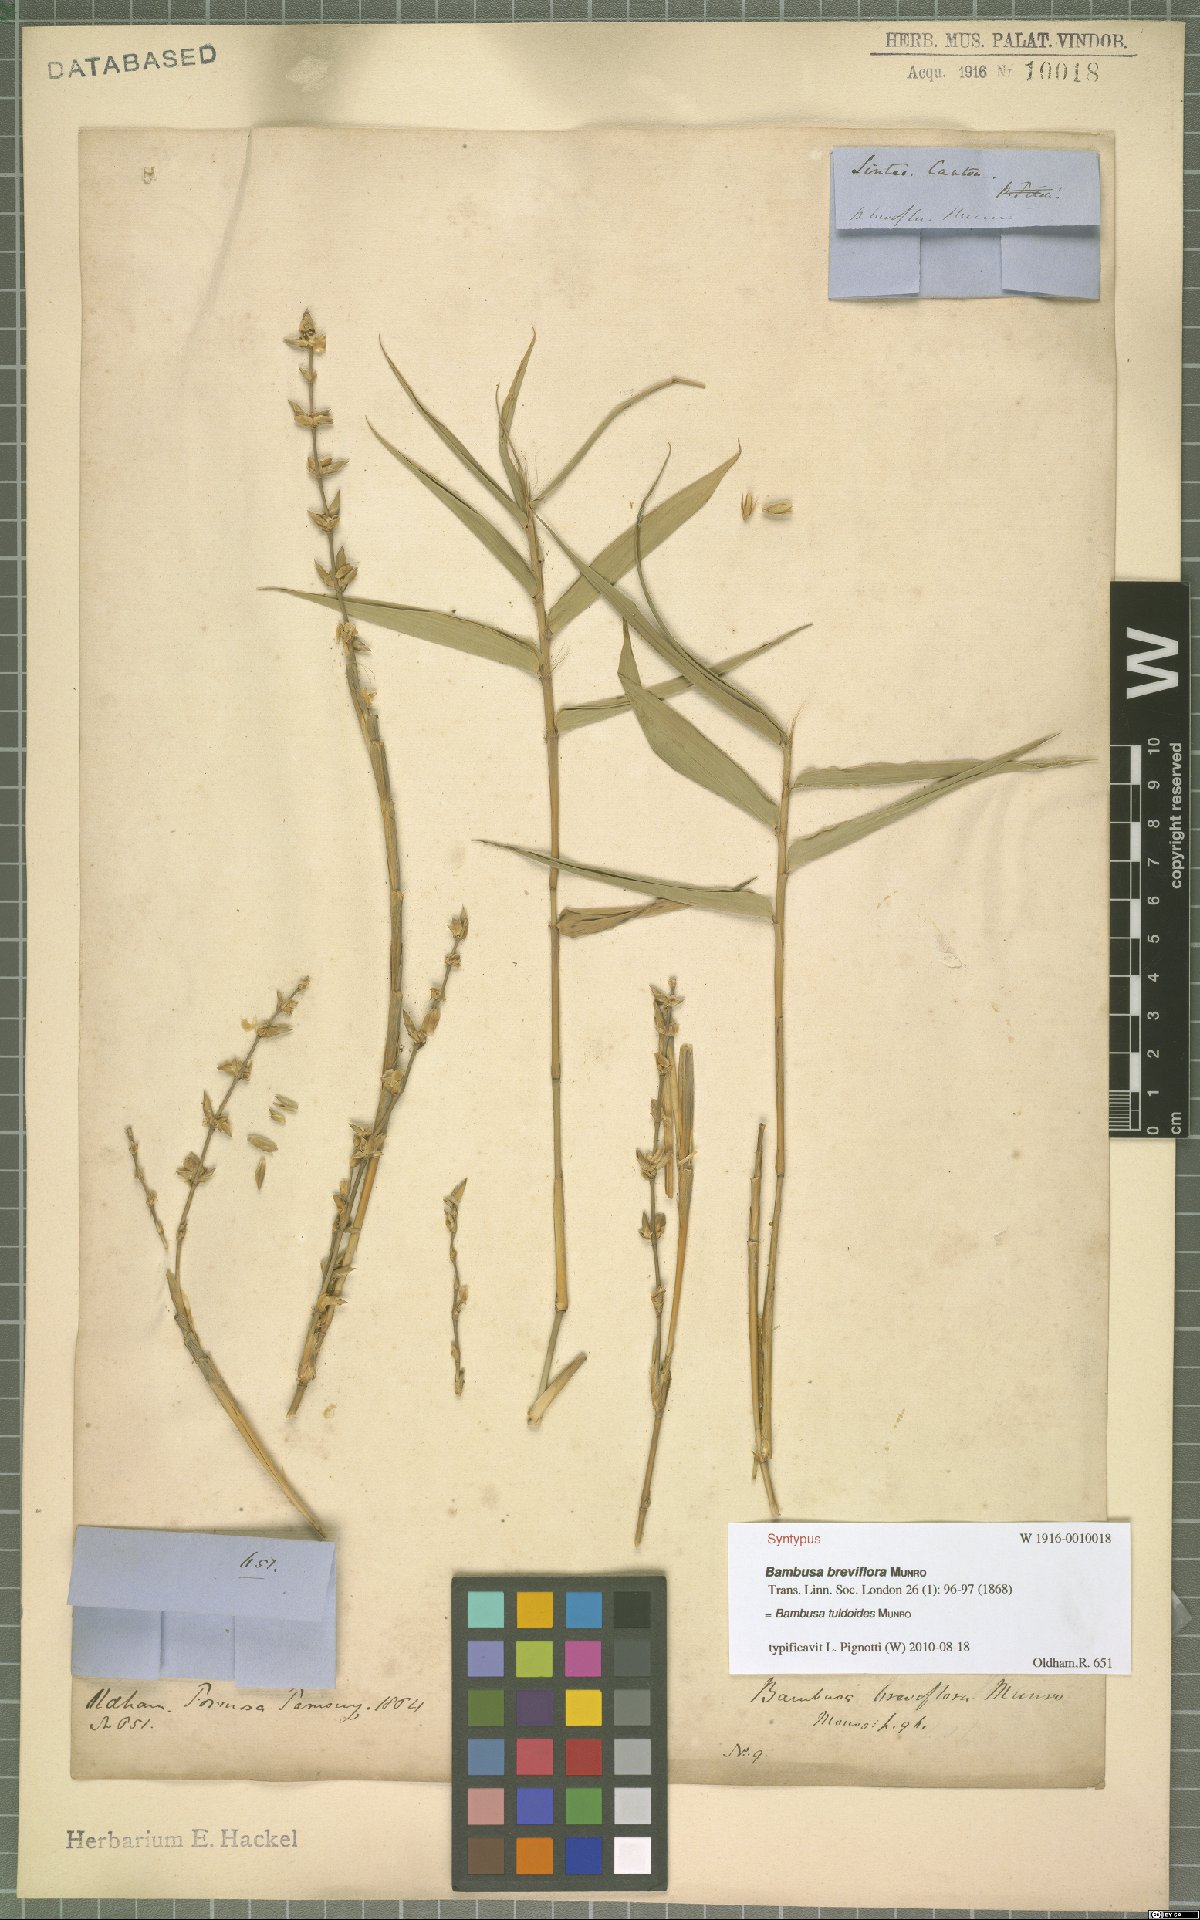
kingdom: Plantae
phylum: Tracheophyta
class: Liliopsida
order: Poales
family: Poaceae
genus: Bambusa
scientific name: Bambusa tuldoides
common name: Verdant bamboo
